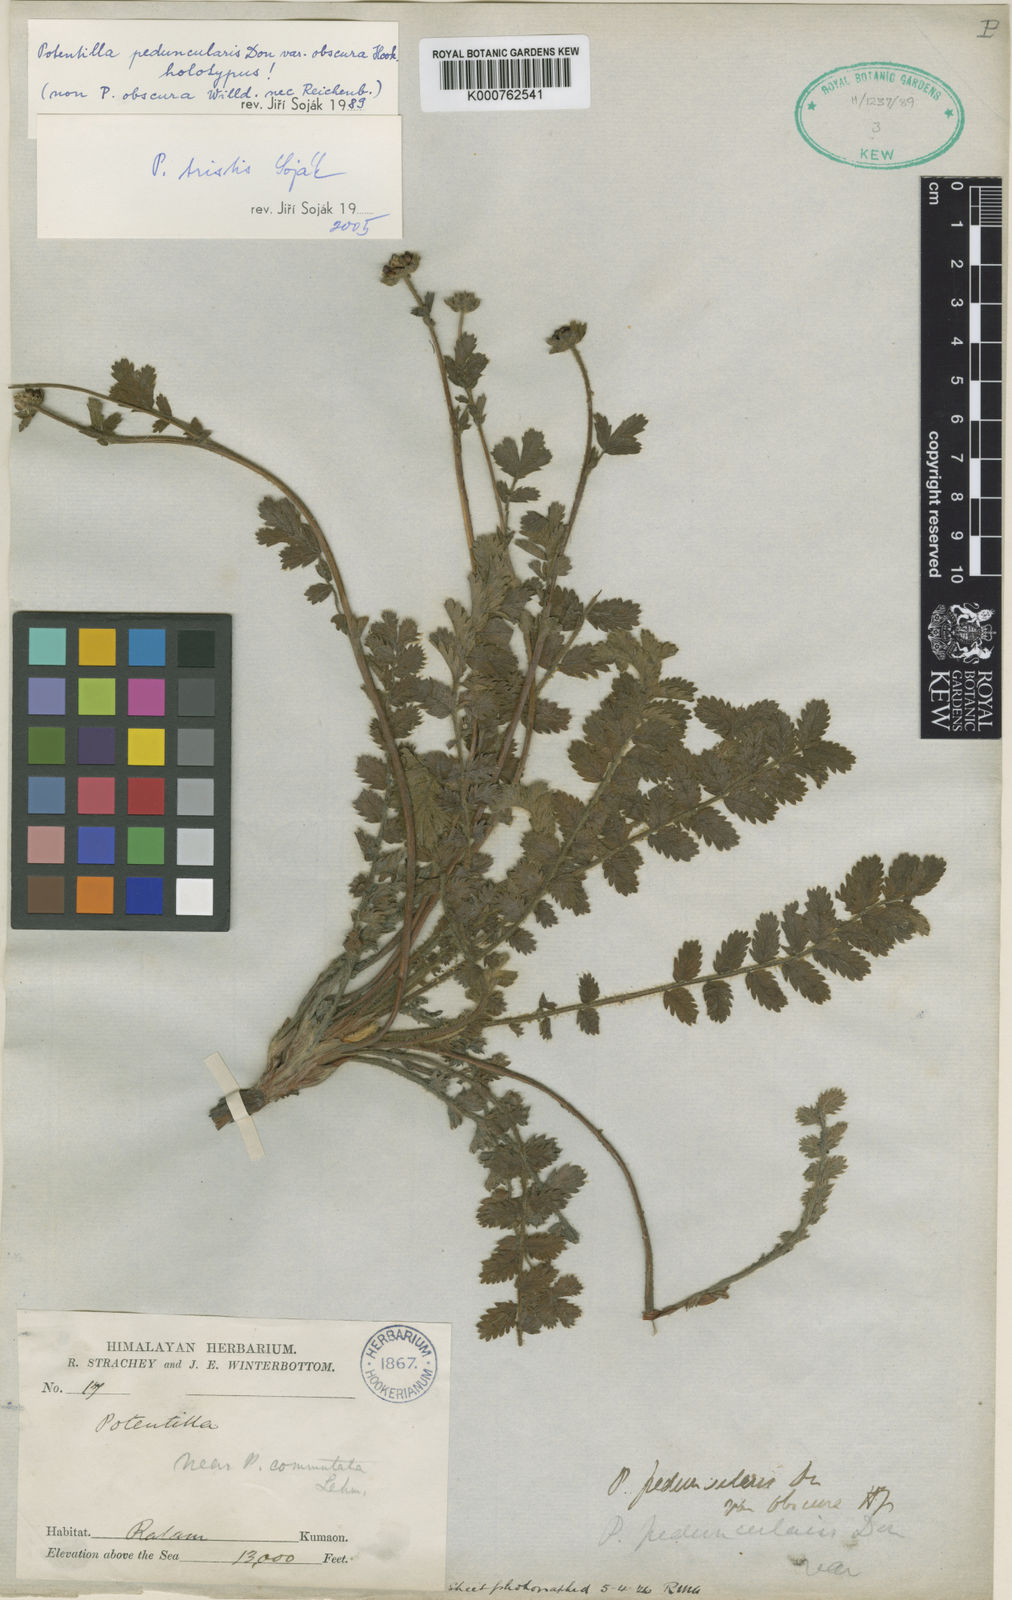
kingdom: Plantae
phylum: Tracheophyta
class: Magnoliopsida
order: Rosales
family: Rosaceae
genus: Potentilla
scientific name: Potentilla
